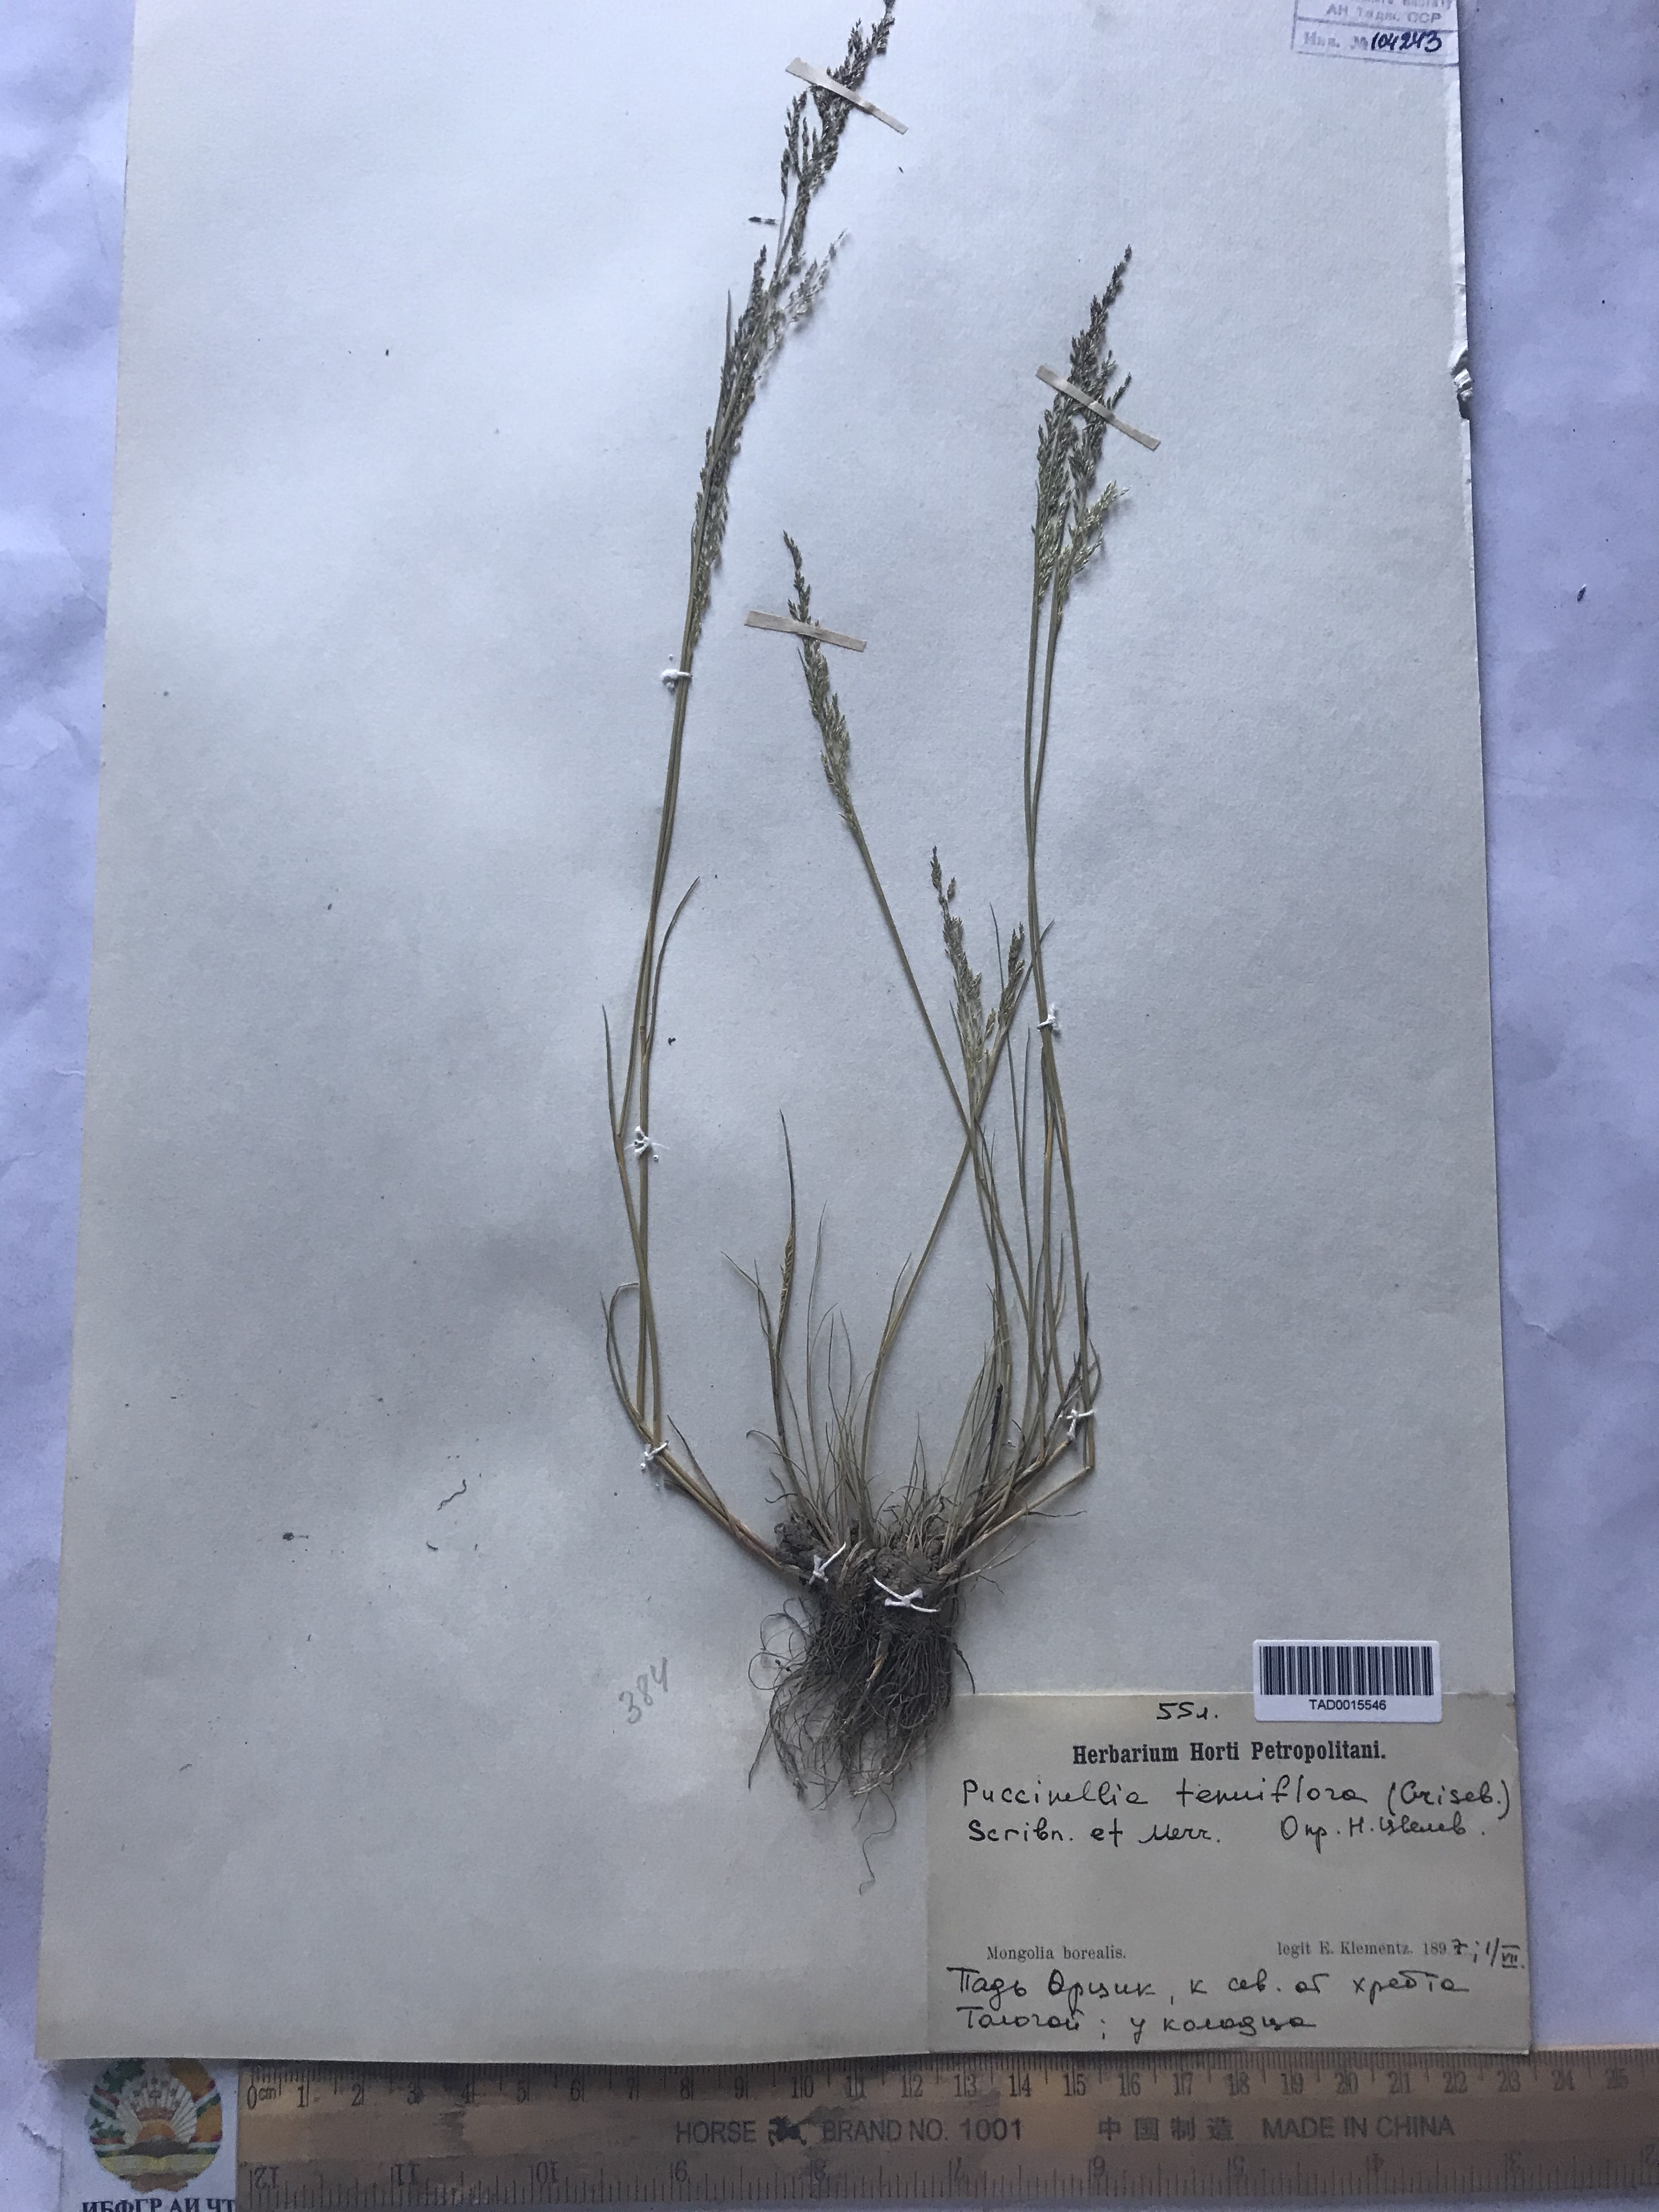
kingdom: Plantae
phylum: Tracheophyta
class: Liliopsida
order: Poales
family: Poaceae
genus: Puccinellia
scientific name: Puccinellia tenuiflora
